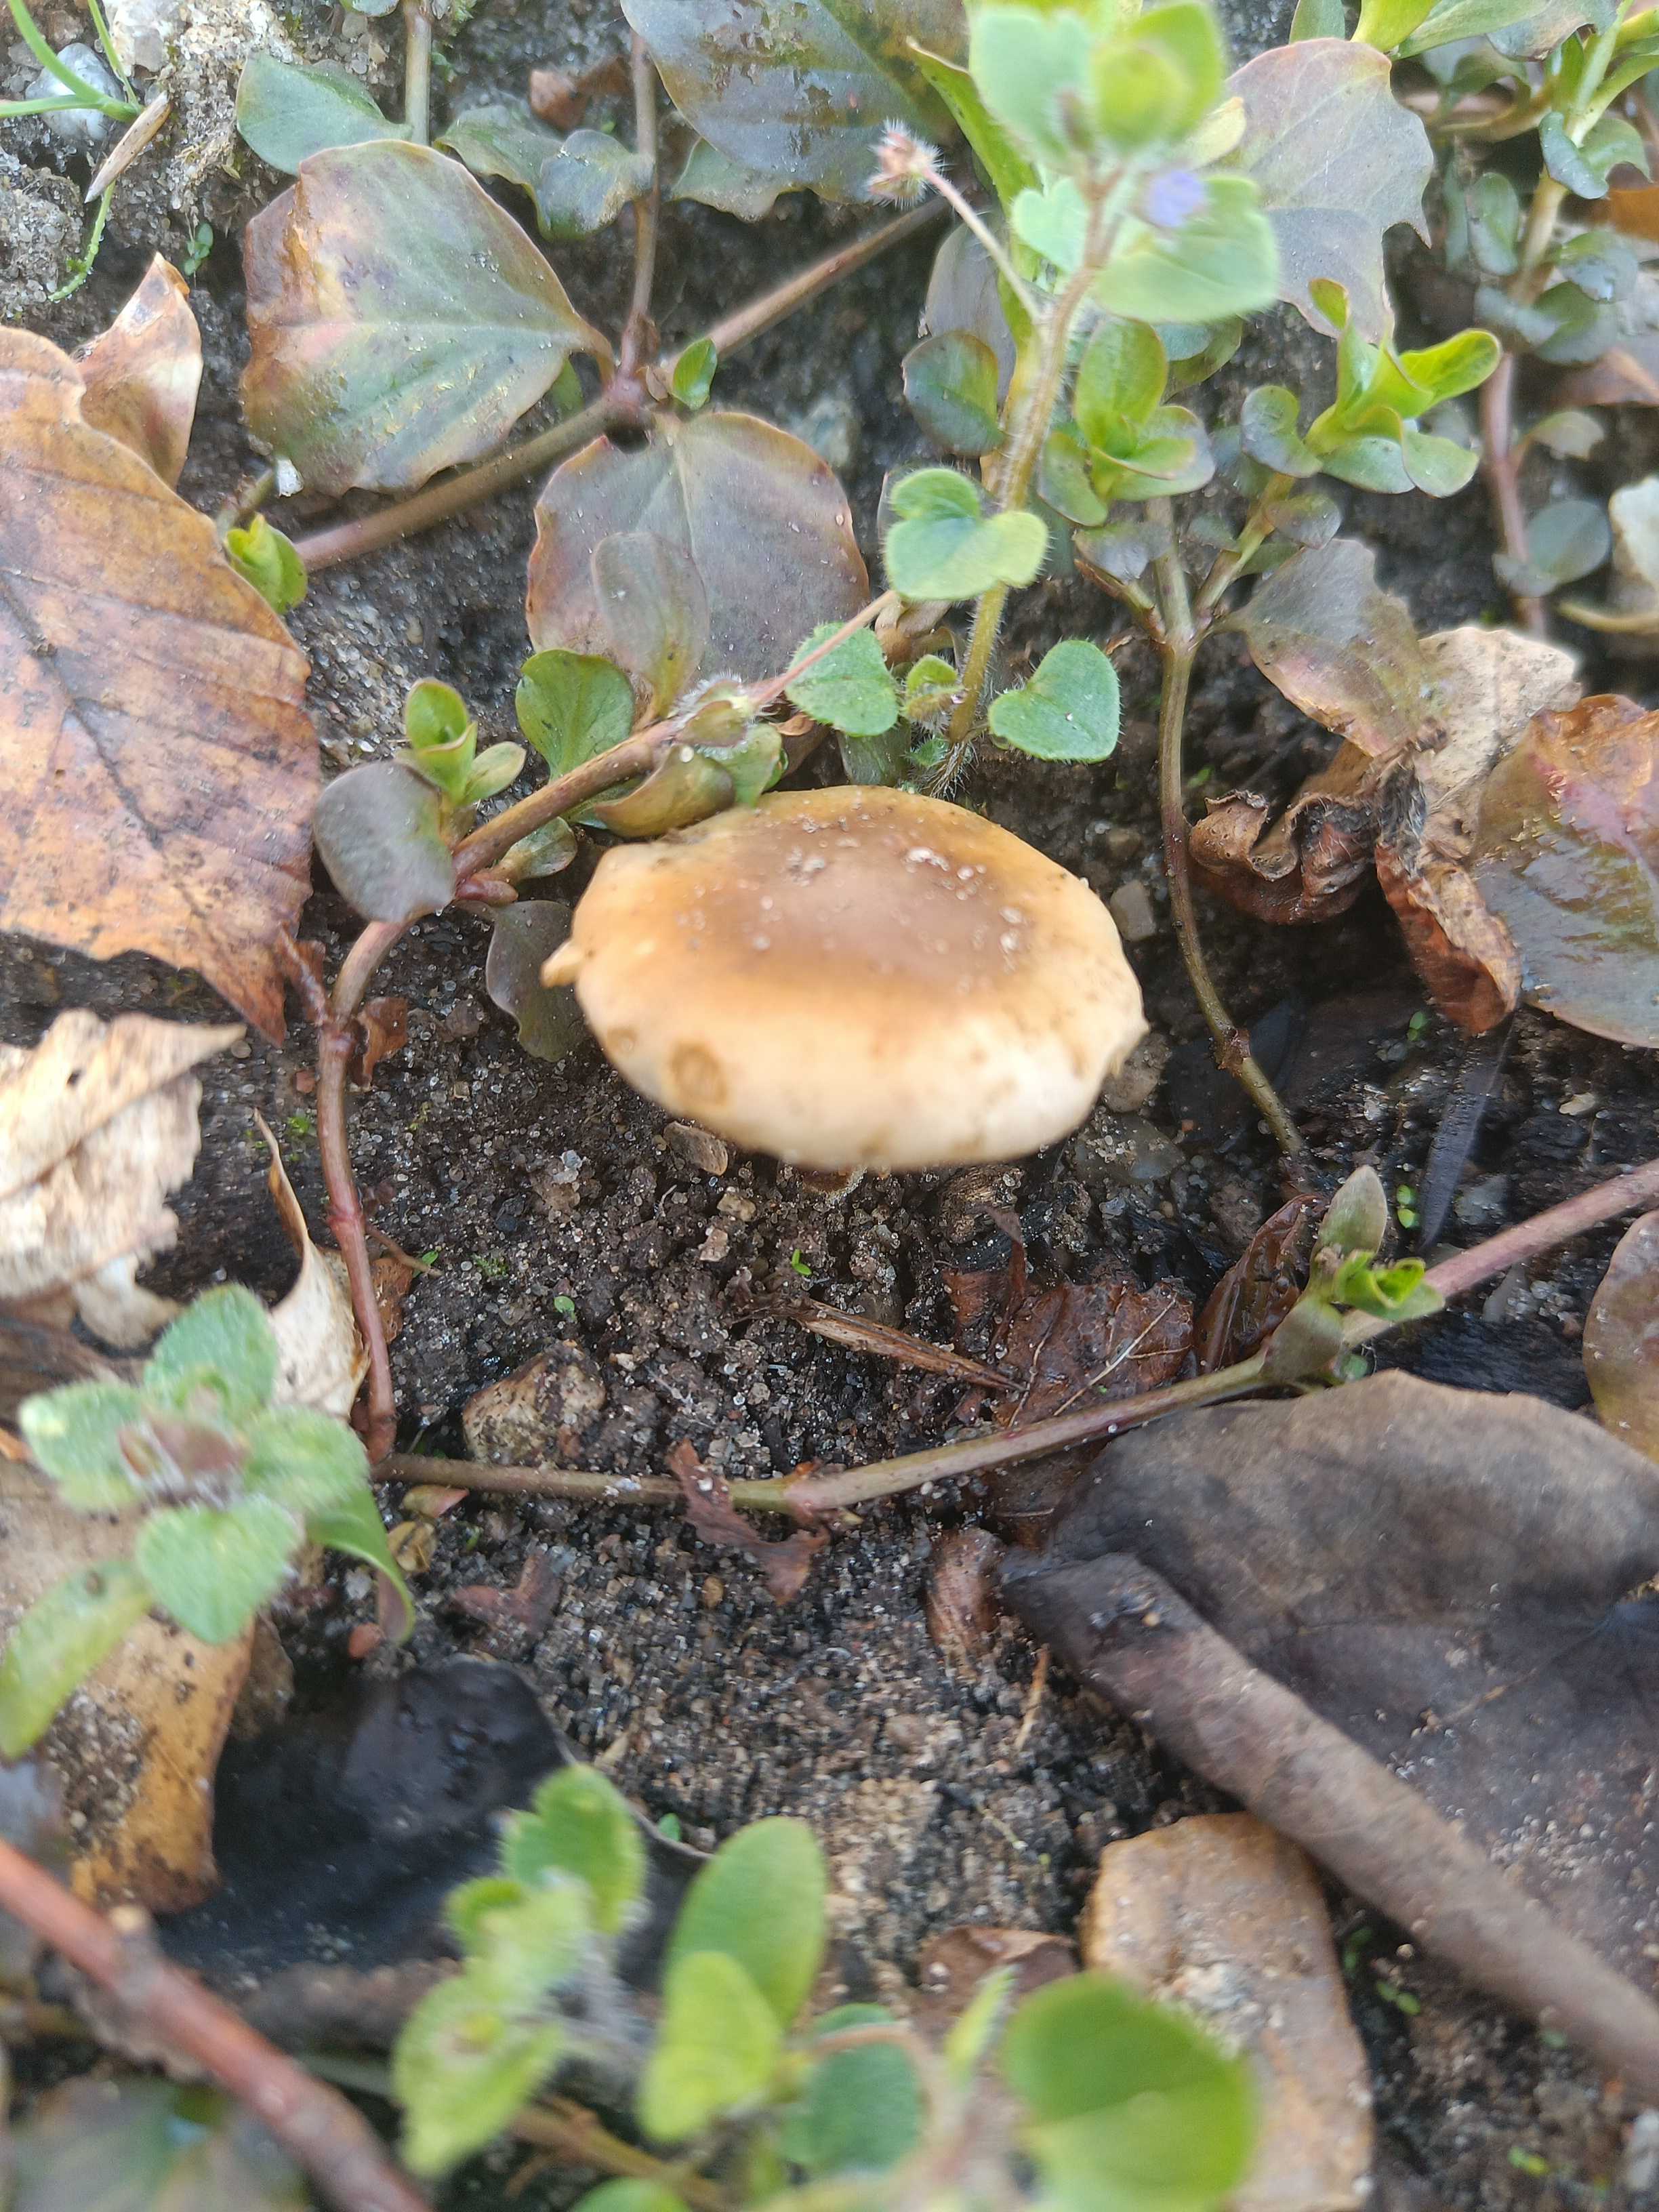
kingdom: Fungi
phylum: Basidiomycota
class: Agaricomycetes
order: Agaricales
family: Bolbitiaceae
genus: Conocybe
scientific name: Conocybe aporos
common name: tidlig dansehat
